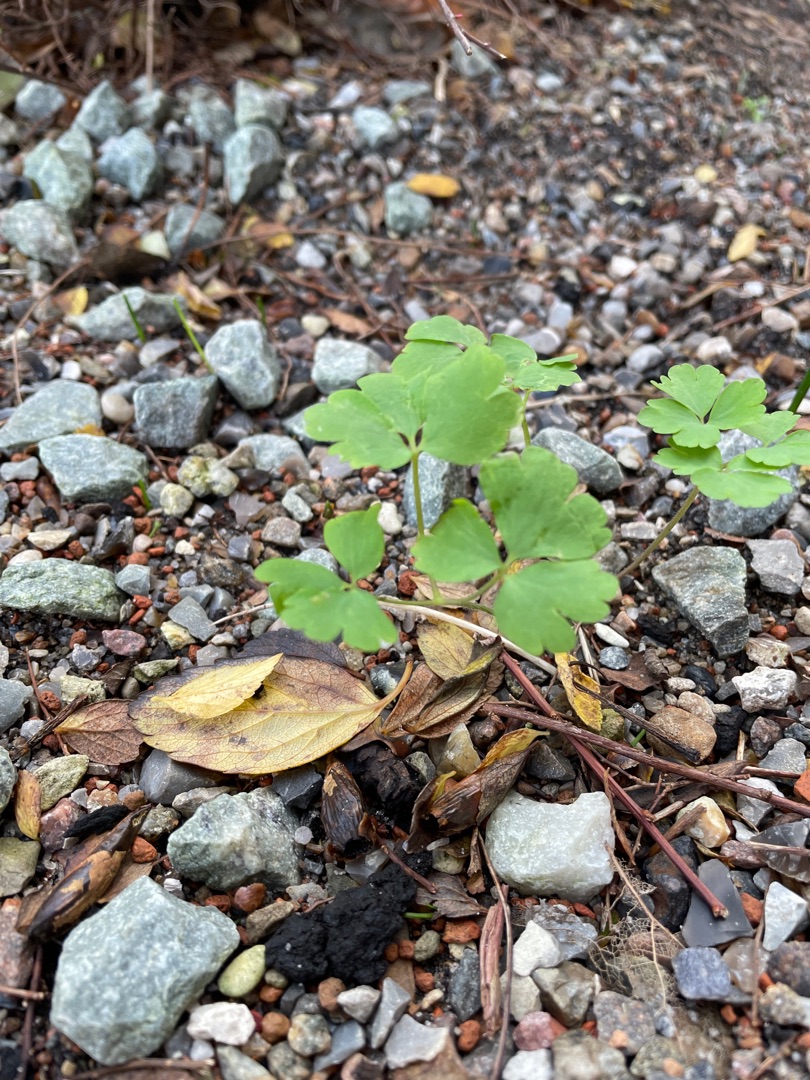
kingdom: Plantae
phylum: Tracheophyta
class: Magnoliopsida
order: Ranunculales
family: Ranunculaceae
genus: Aquilegia
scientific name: Aquilegia vulgaris
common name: Akeleje
